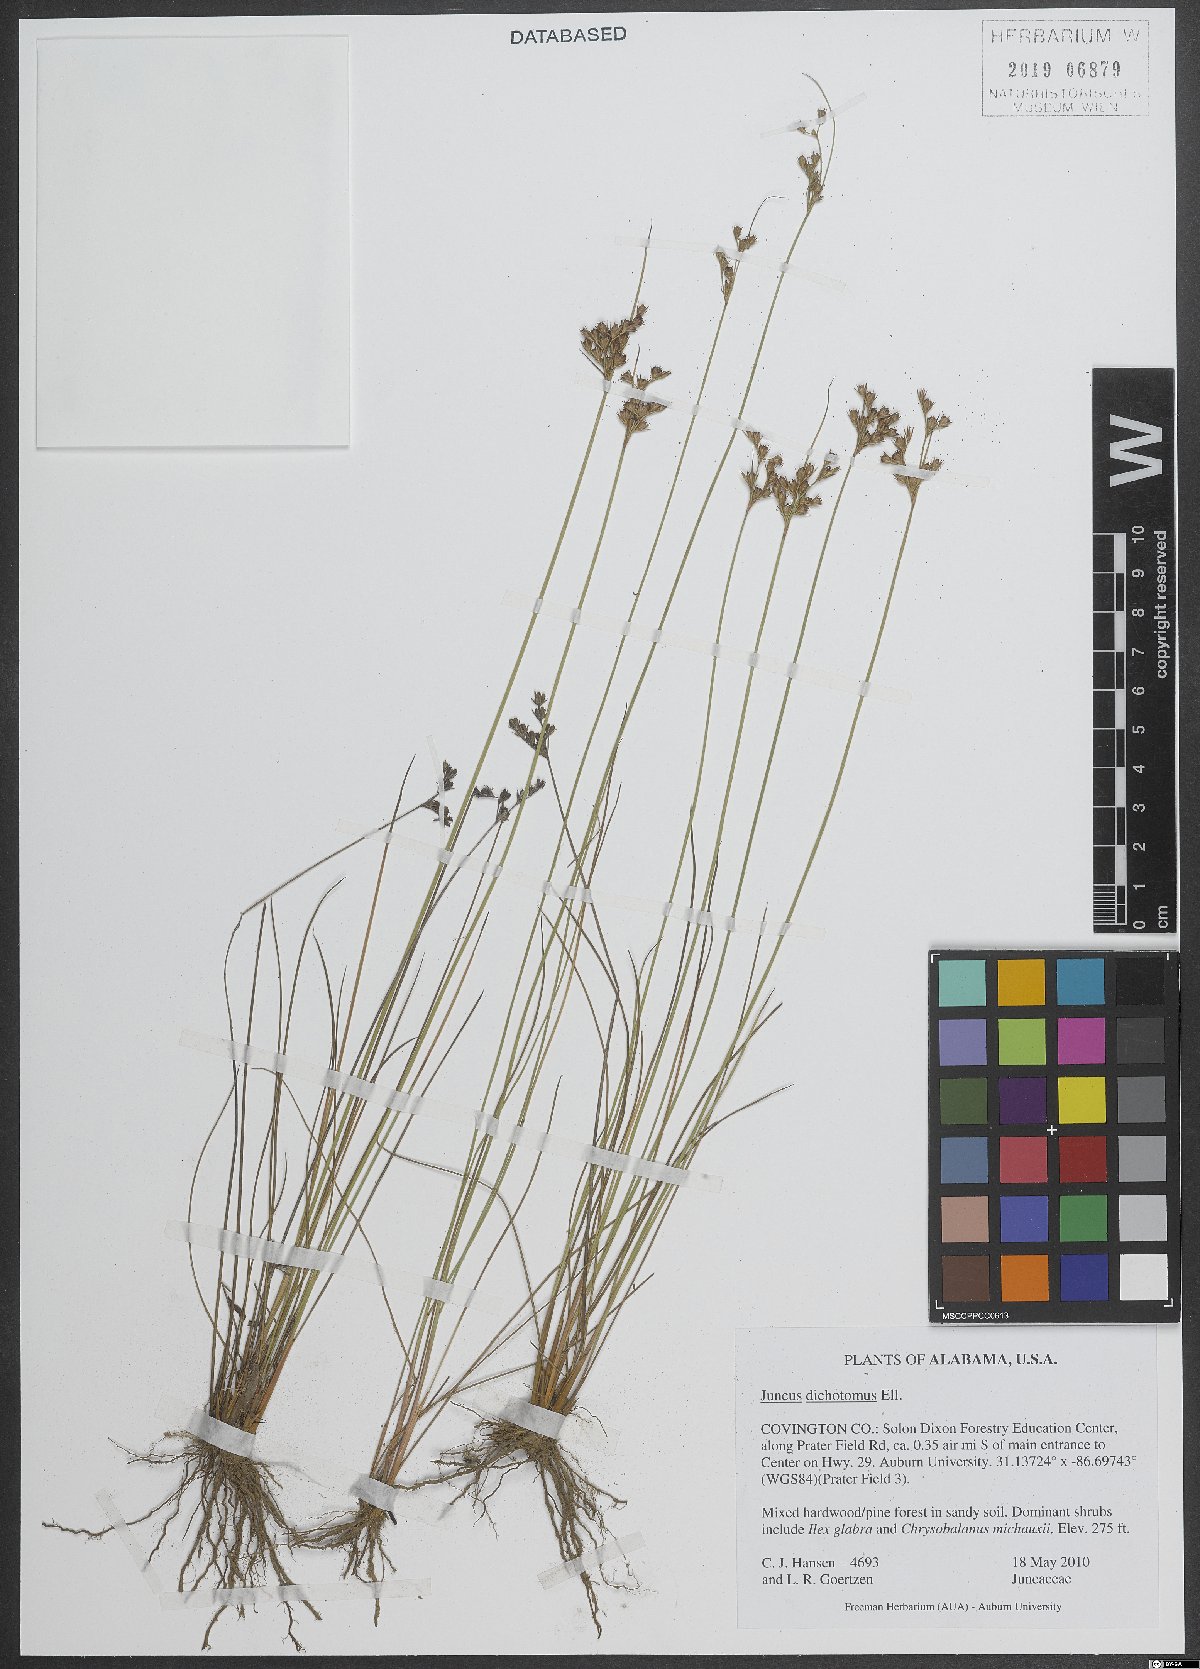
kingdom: Plantae
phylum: Tracheophyta
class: Liliopsida
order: Poales
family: Juncaceae
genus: Juncus
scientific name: Juncus dichotomus
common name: Forked rush
